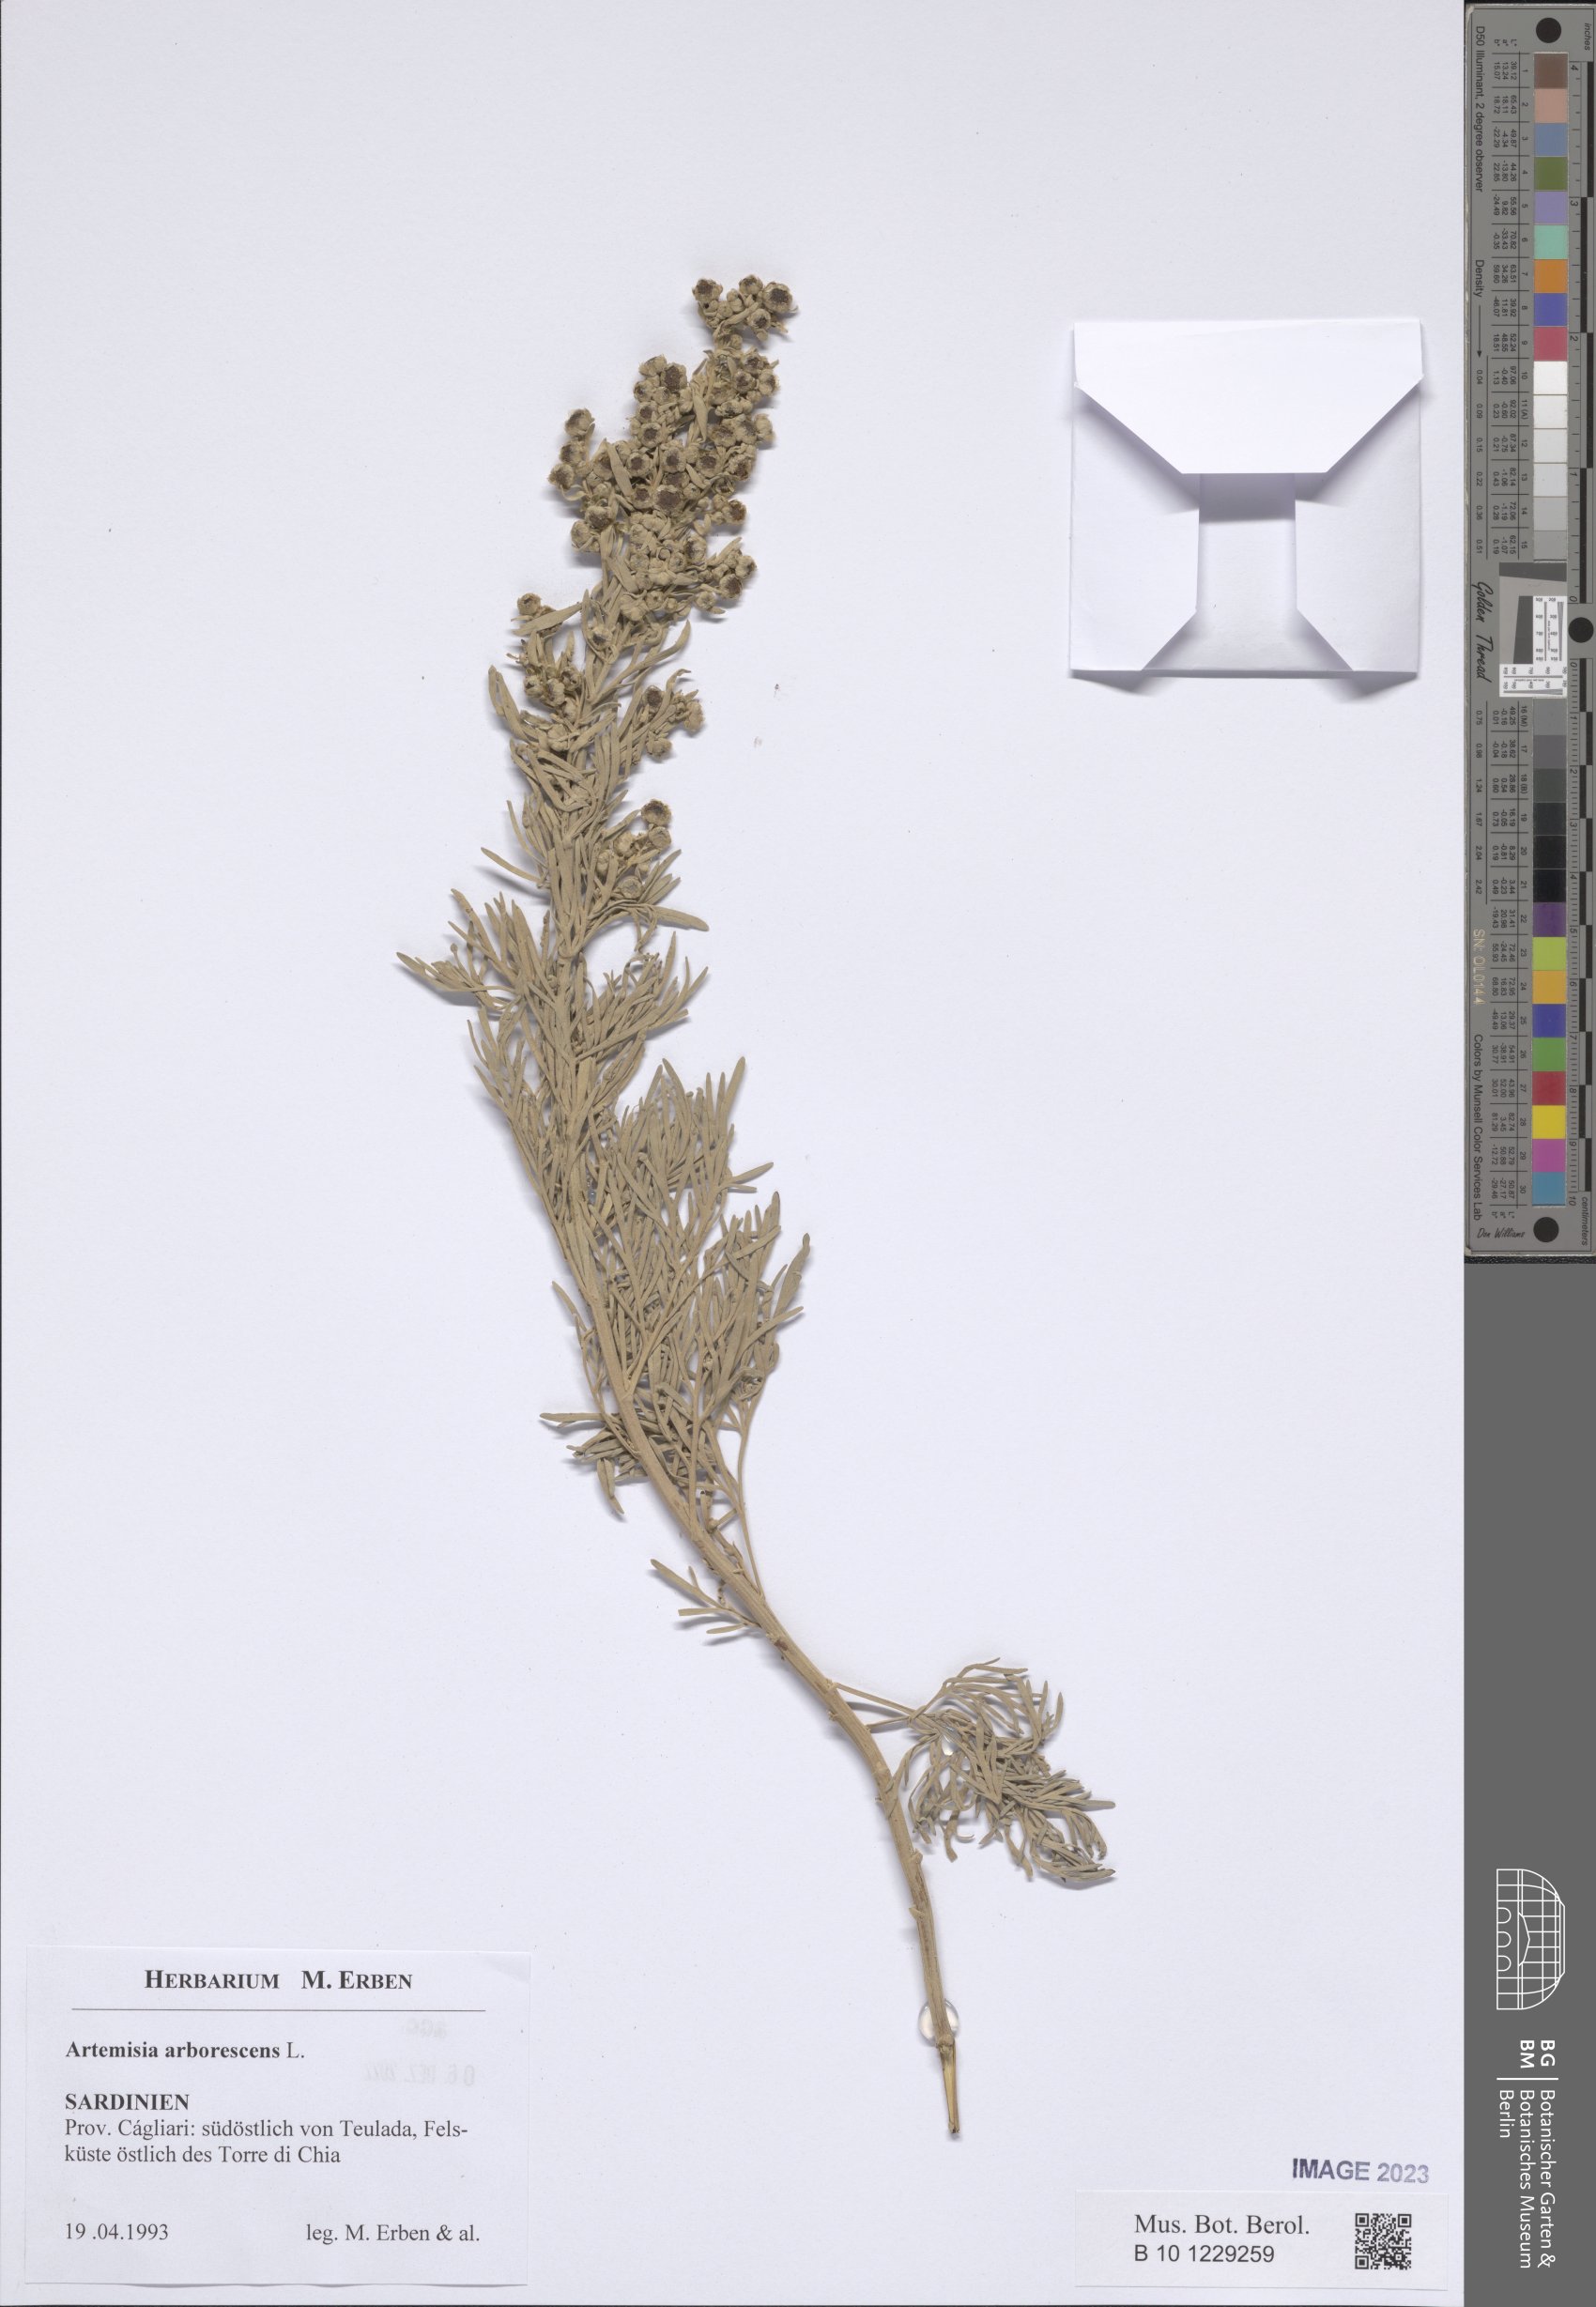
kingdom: Plantae
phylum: Tracheophyta
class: Magnoliopsida
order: Asterales
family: Asteraceae
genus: Artemisia
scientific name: Artemisia arborescens
